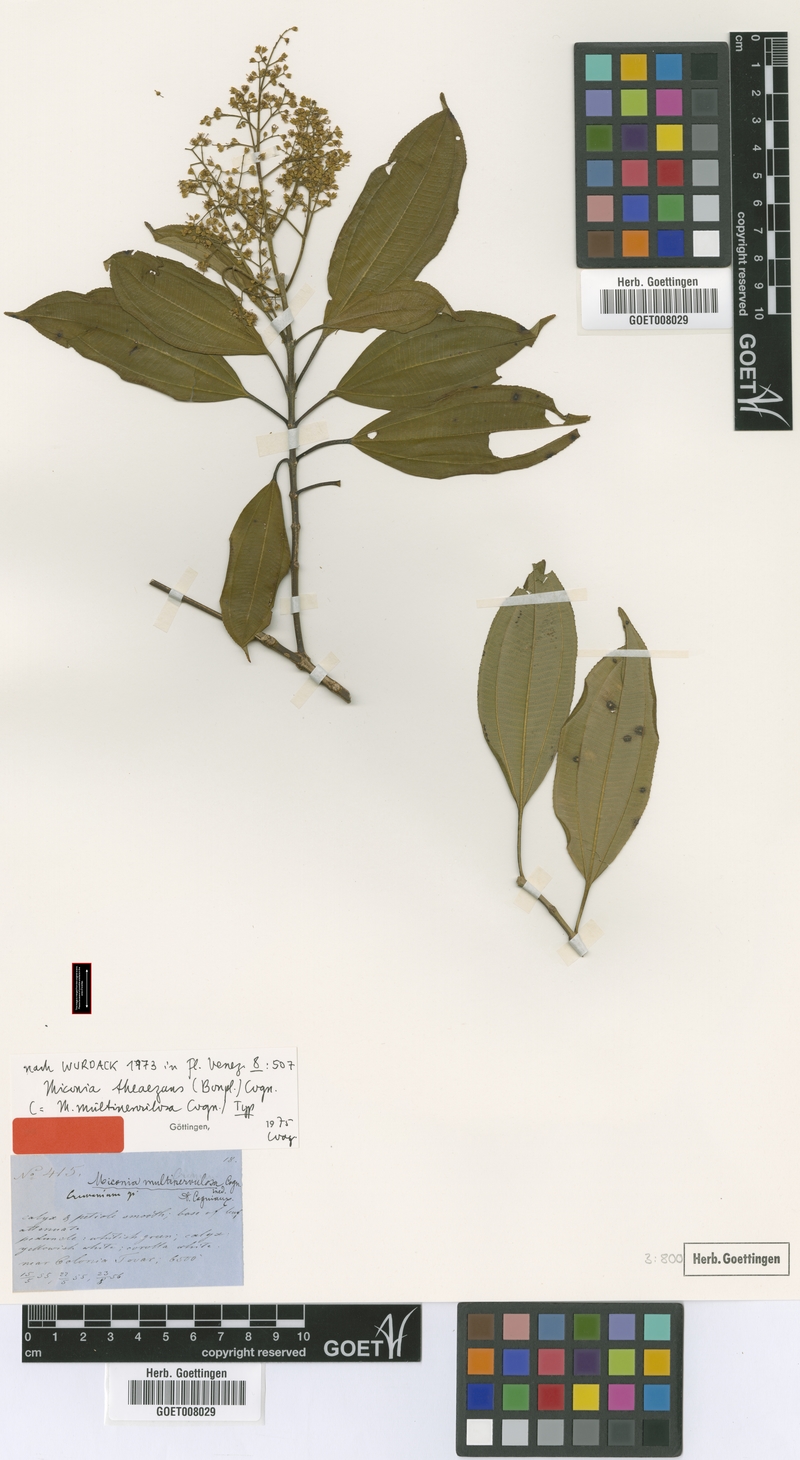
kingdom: Plantae
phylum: Tracheophyta
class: Magnoliopsida
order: Myrtales
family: Melastomataceae
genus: Miconia
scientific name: Miconia theizans
